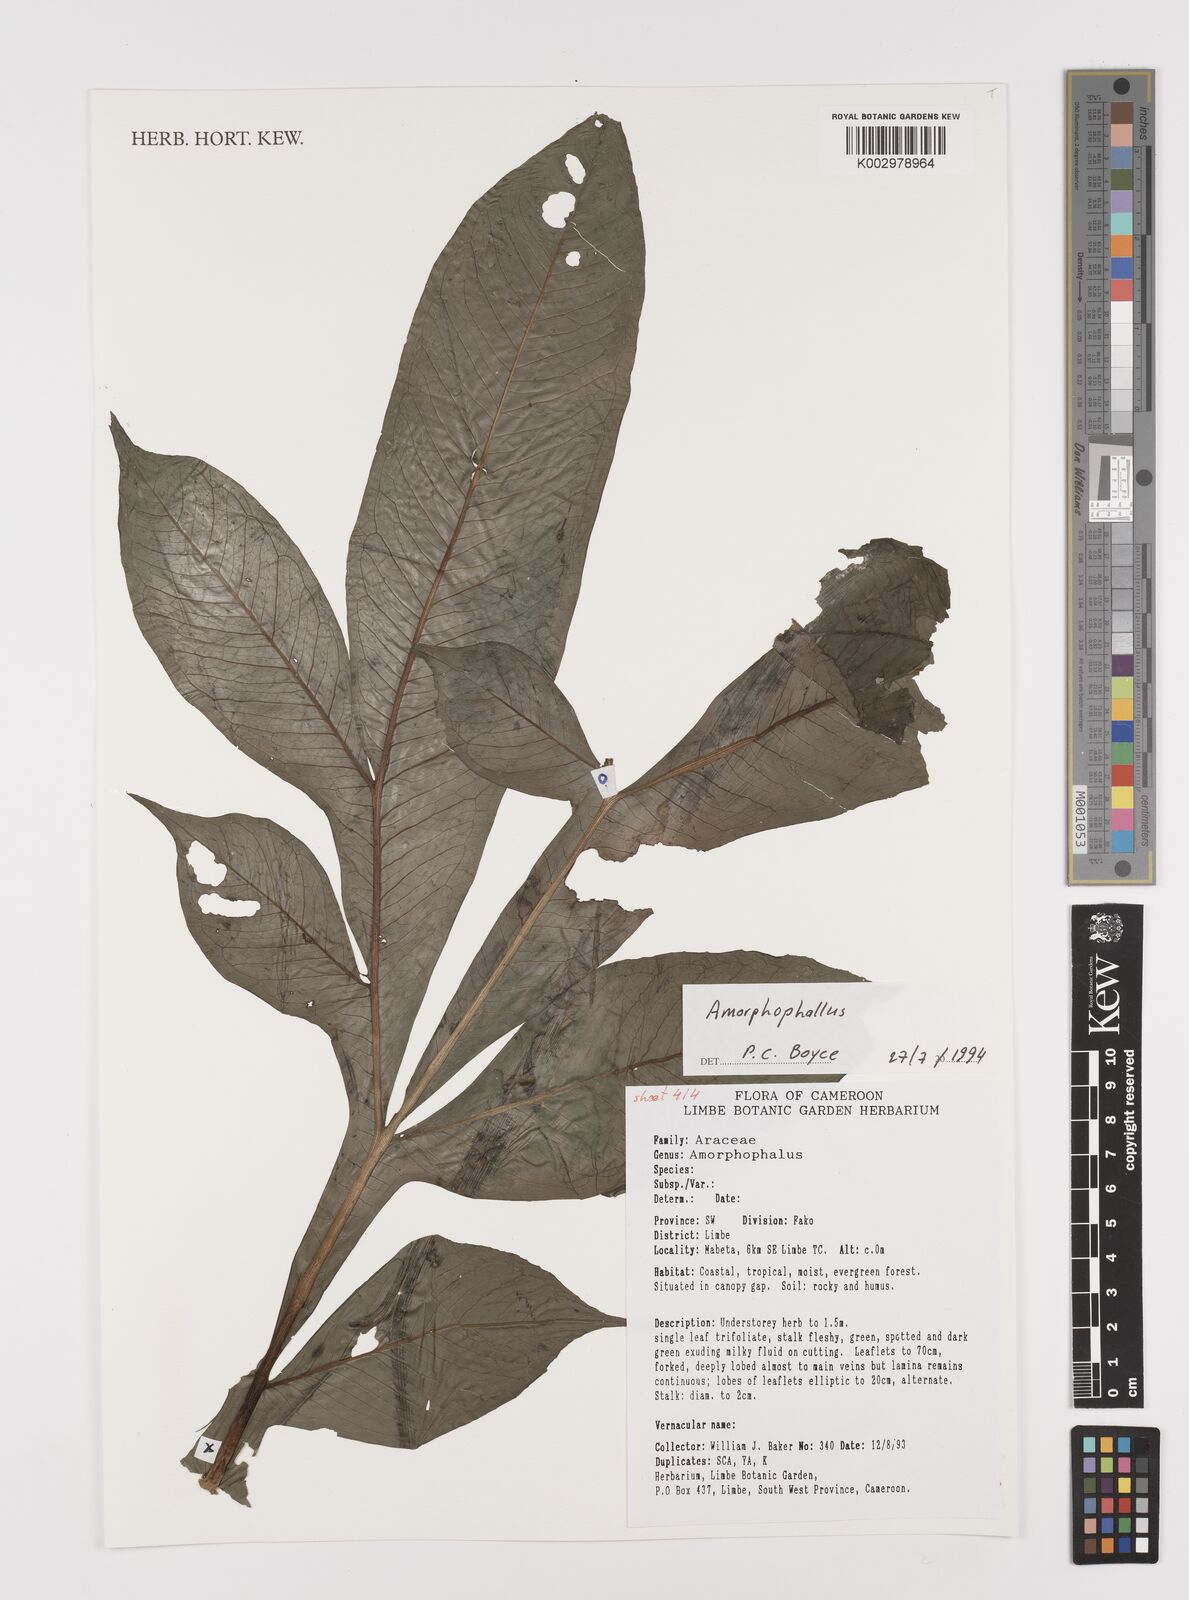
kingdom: Plantae
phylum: Tracheophyta
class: Liliopsida
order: Alismatales
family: Araceae
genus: Amorphophallus
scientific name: Amorphophallus
